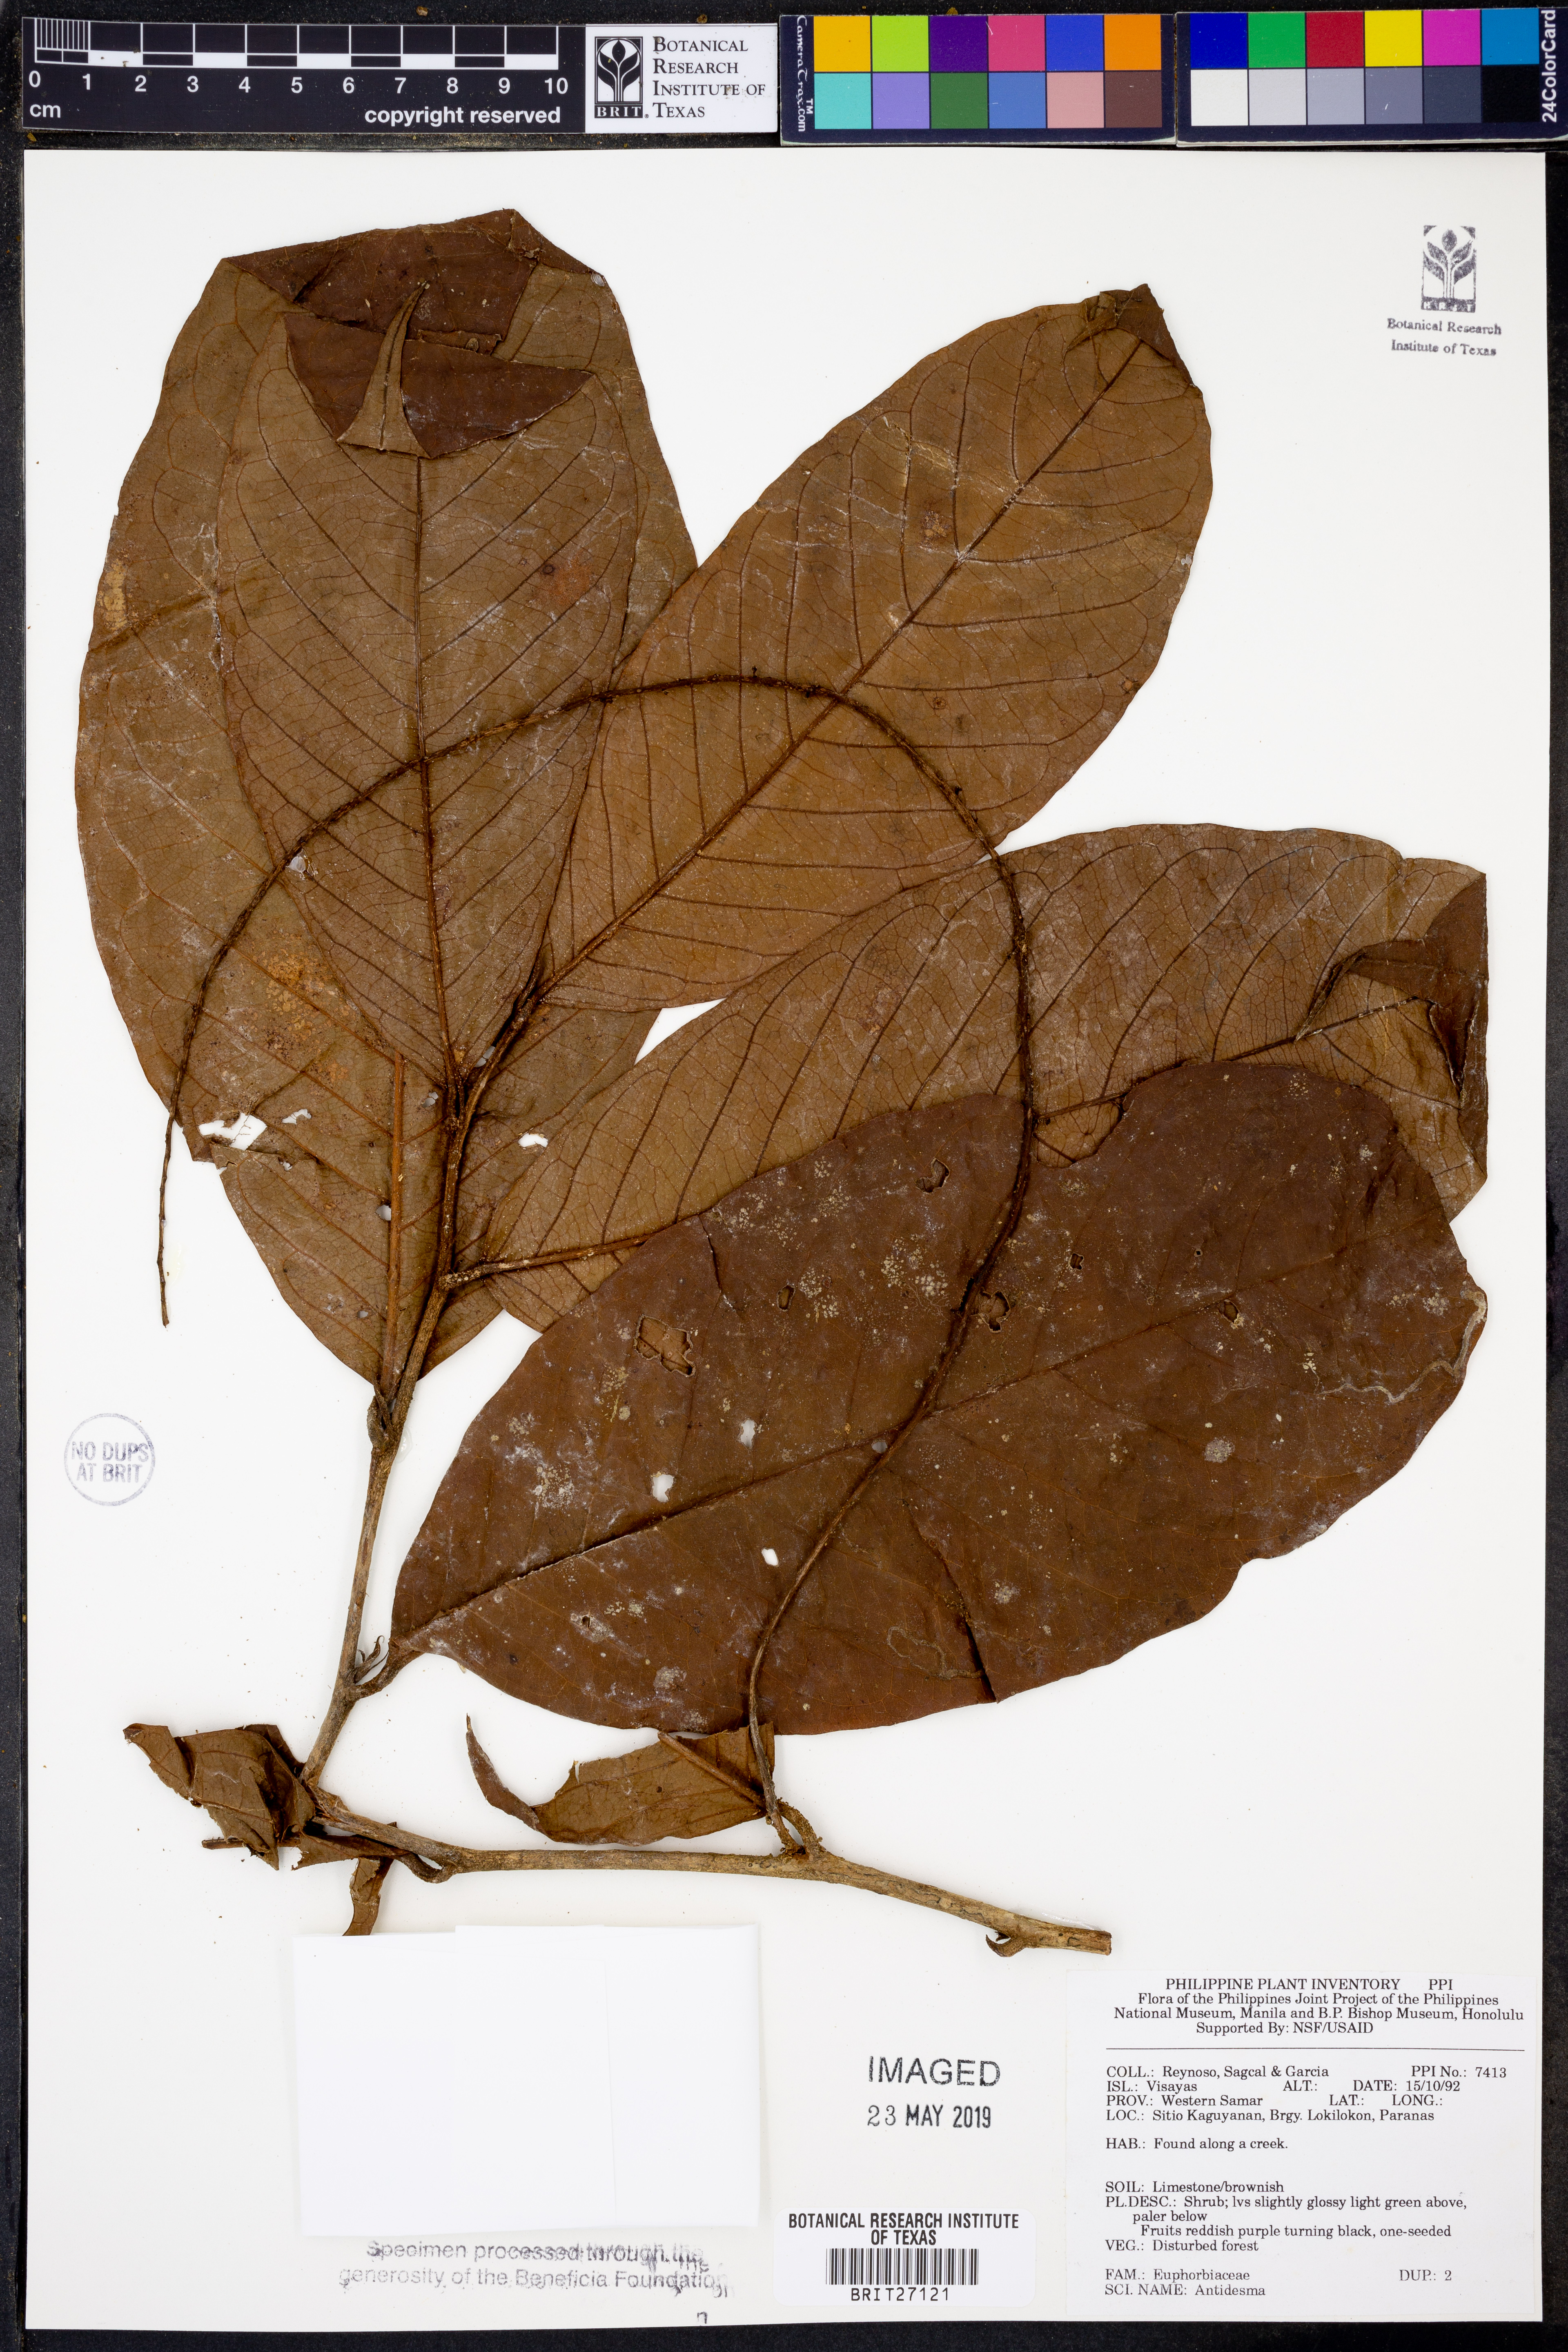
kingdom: Plantae
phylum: Tracheophyta
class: Magnoliopsida
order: Malpighiales
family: Phyllanthaceae
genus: Antidesma
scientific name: Antidesma
